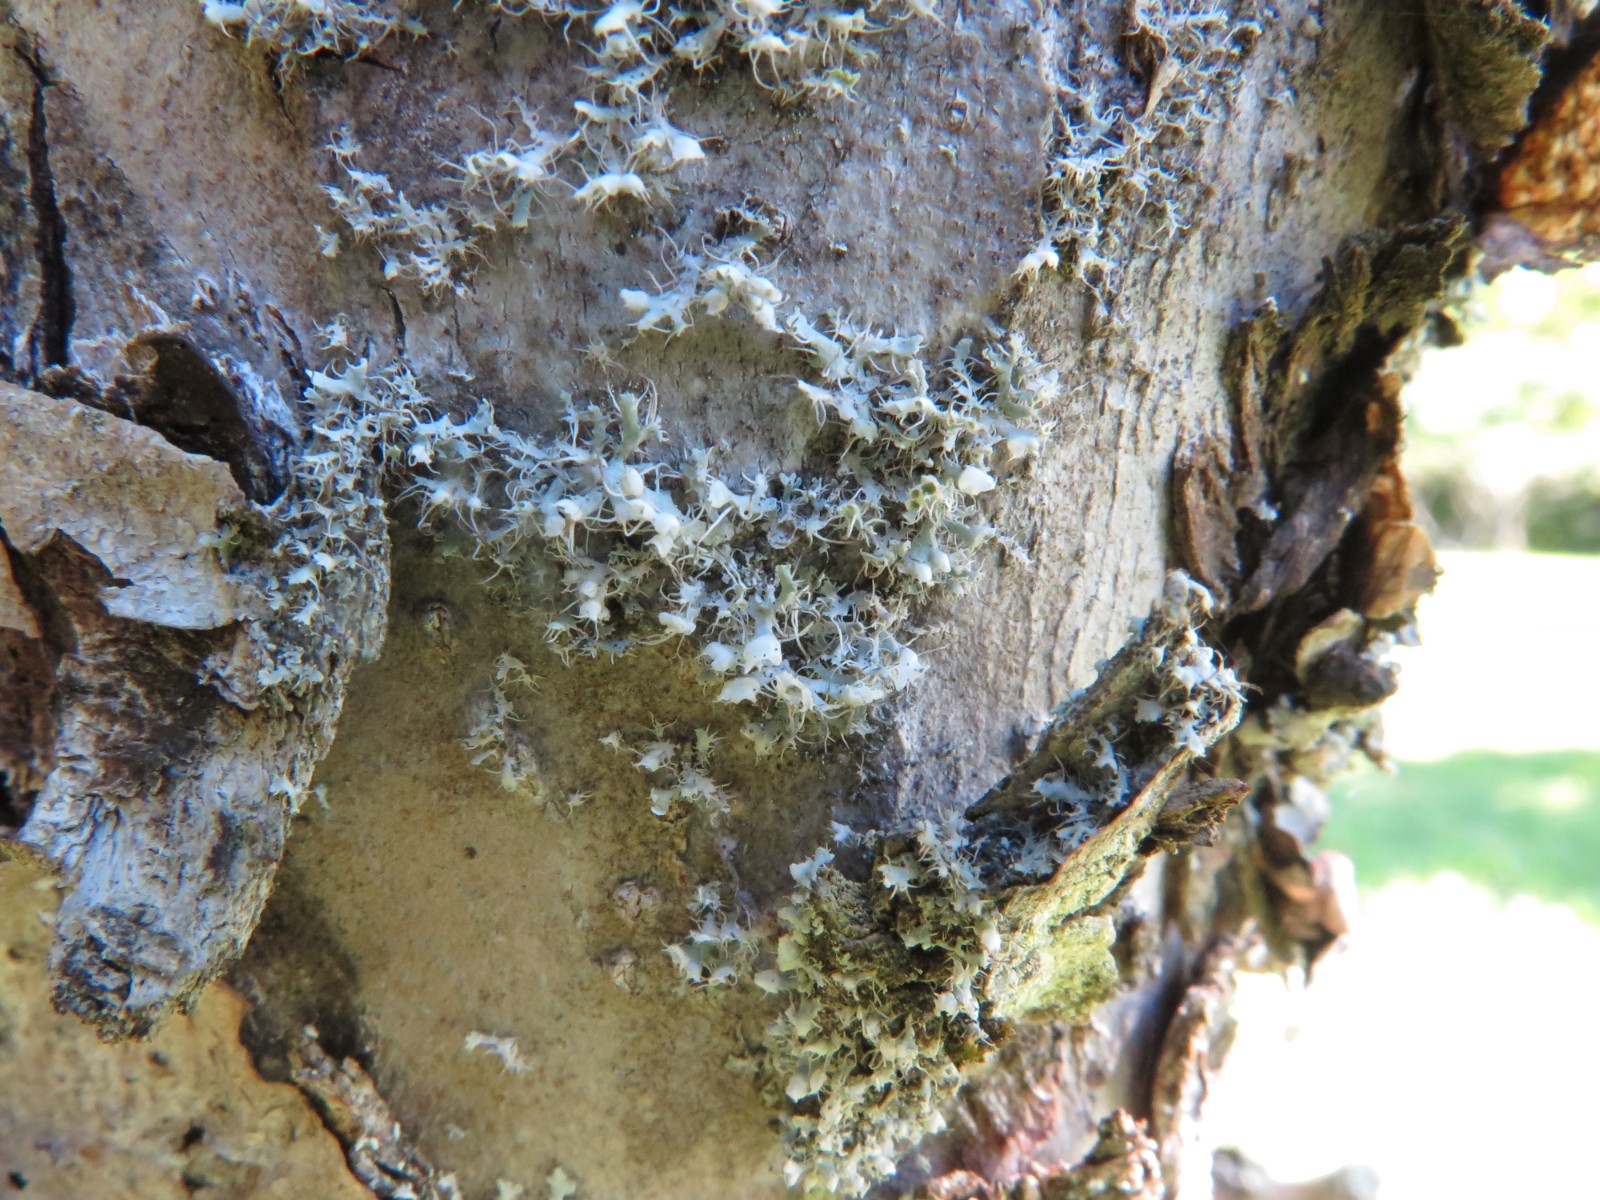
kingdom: Fungi
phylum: Ascomycota
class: Lecanoromycetes
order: Caliciales
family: Physciaceae
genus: Physcia
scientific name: Physcia adscendens
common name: hætte-rosetlav
